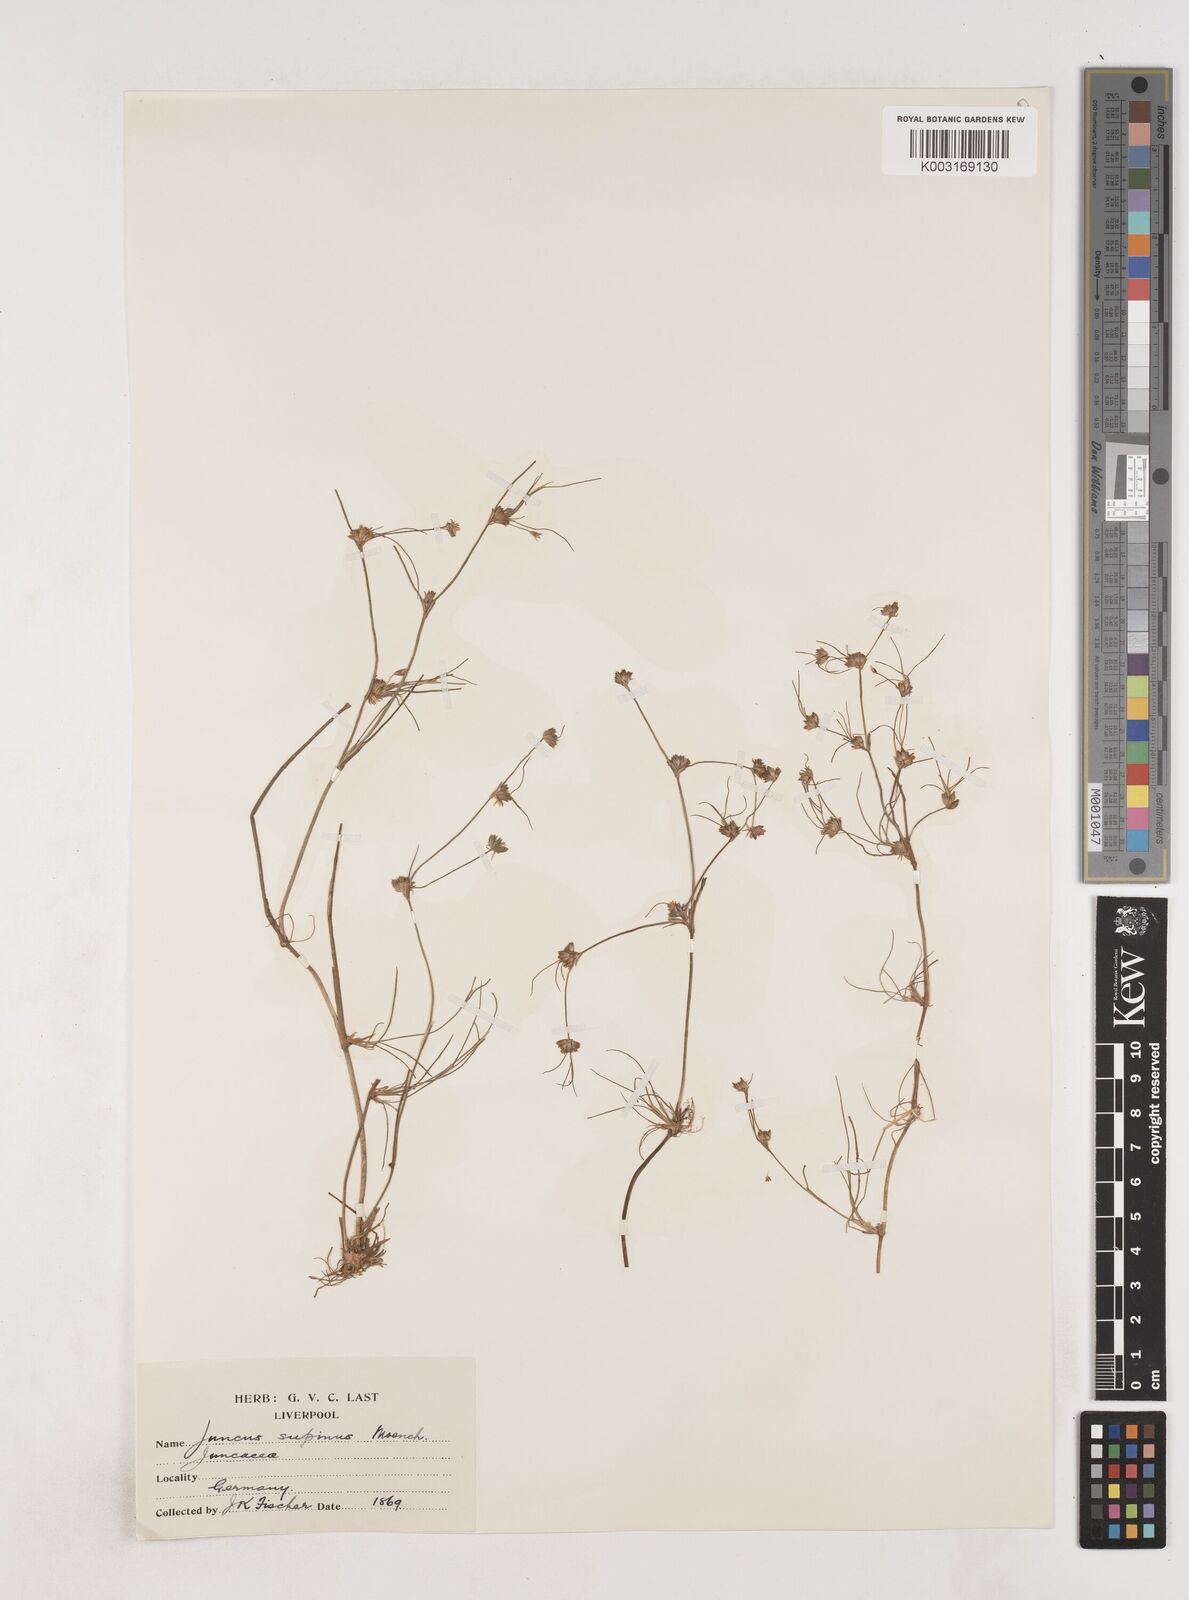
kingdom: Plantae
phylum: Tracheophyta
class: Liliopsida
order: Poales
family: Juncaceae
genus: Juncus
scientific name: Juncus bulbosus
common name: Bulbous rush
